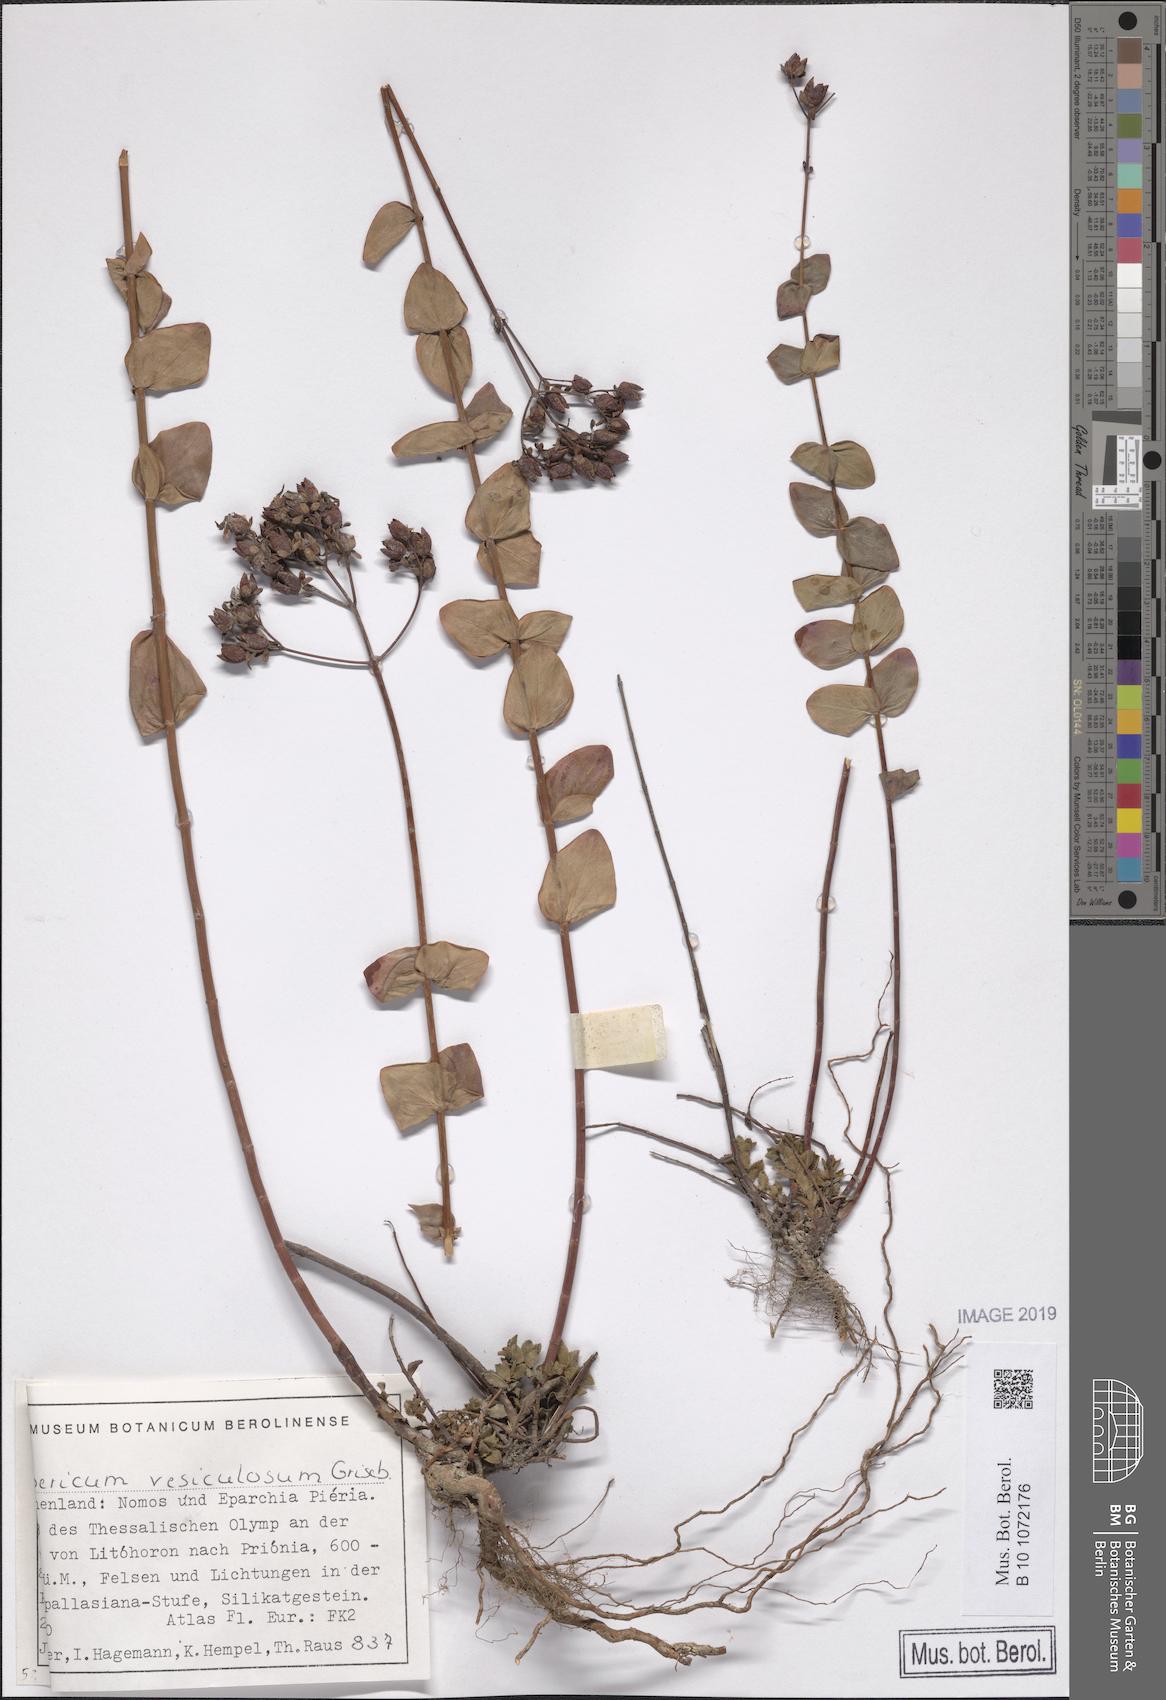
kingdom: Plantae
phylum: Tracheophyta
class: Magnoliopsida
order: Malpighiales
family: Hypericaceae
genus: Hypericum
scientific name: Hypericum vesiculosum
